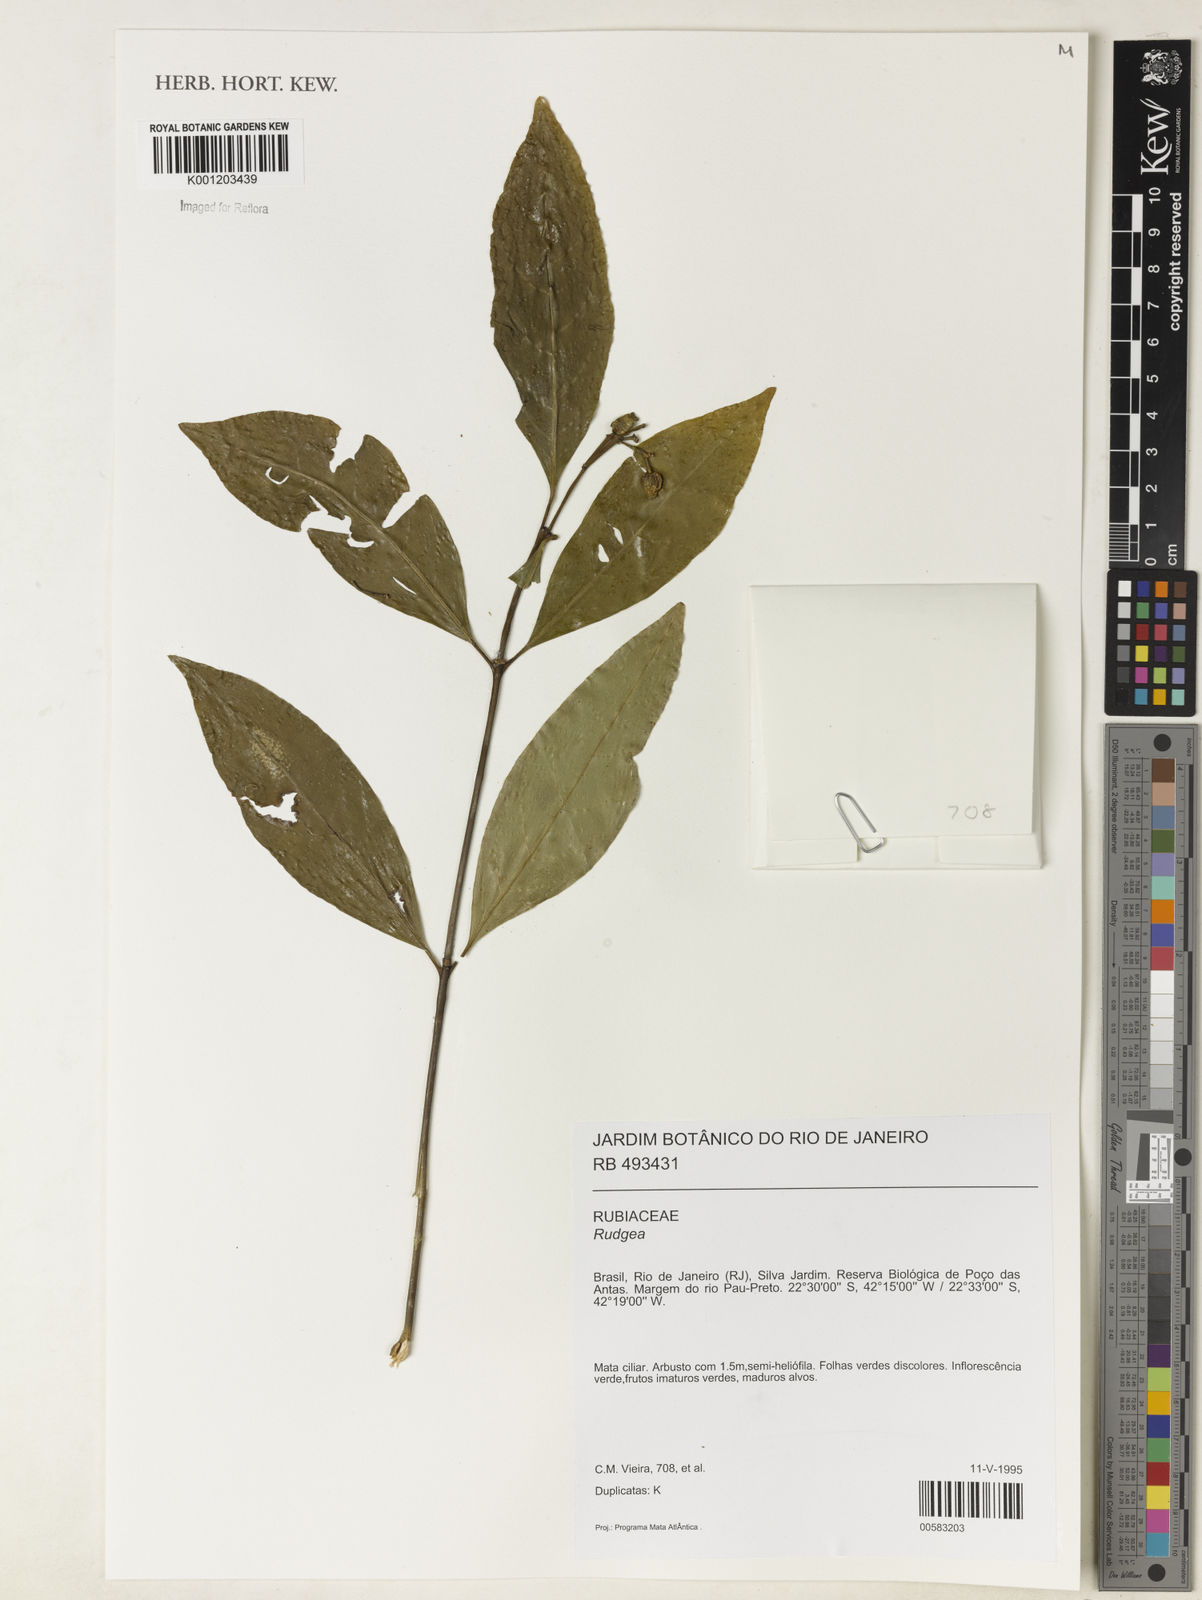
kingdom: Plantae
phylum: Tracheophyta
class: Magnoliopsida
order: Gentianales
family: Rubiaceae
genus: Rudgea
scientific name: Rudgea
